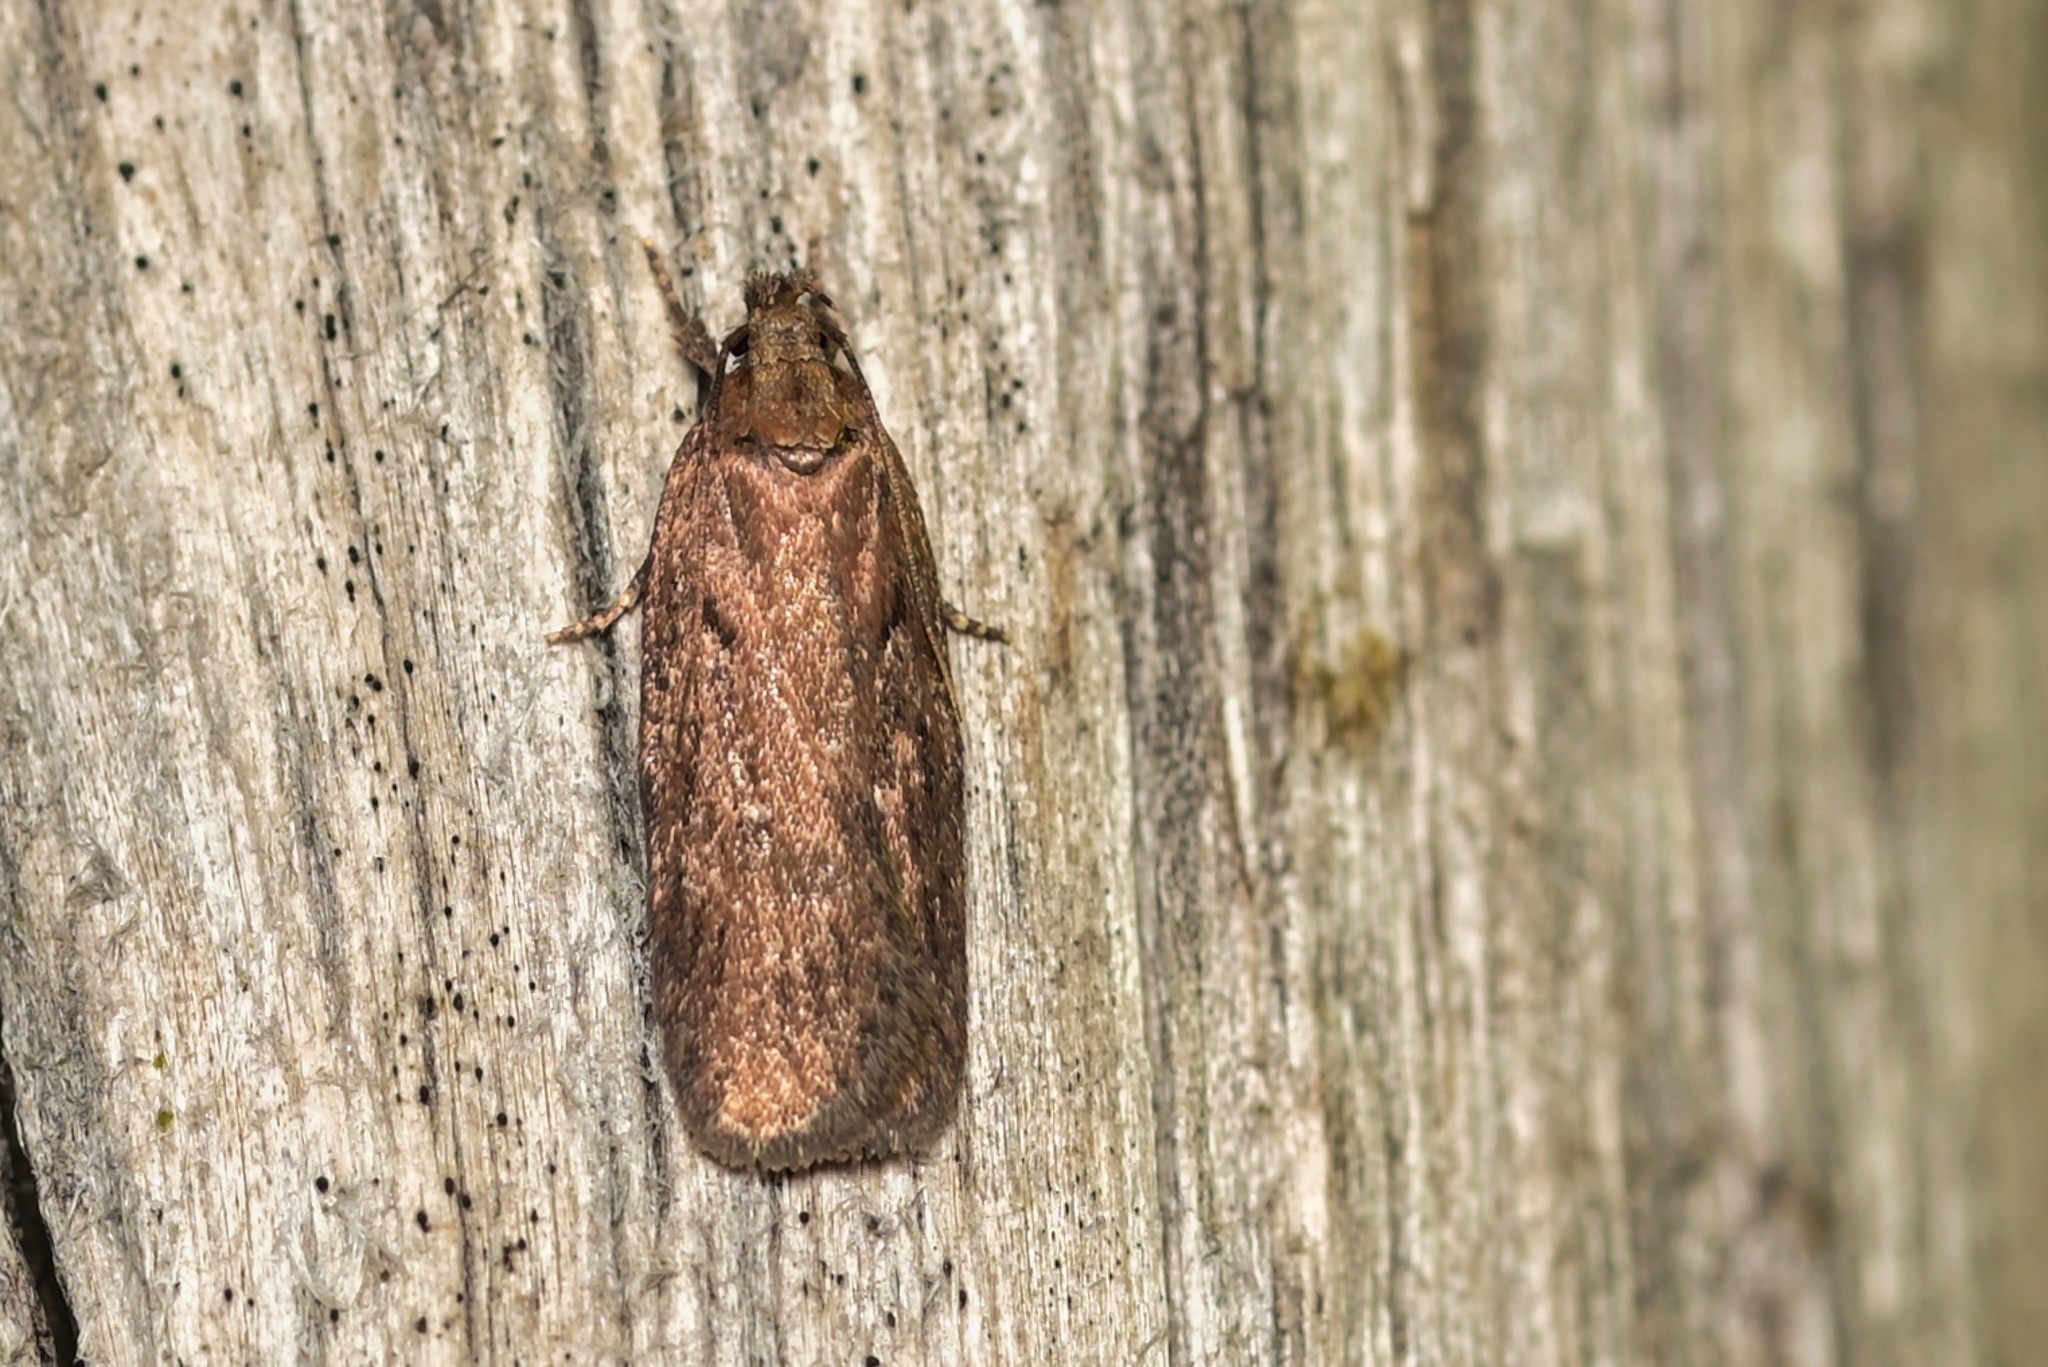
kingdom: Animalia
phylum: Arthropoda
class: Insecta
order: Lepidoptera
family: Depressariidae
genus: Depressaria
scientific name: Depressaria olerella
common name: Yarrow flat-body
